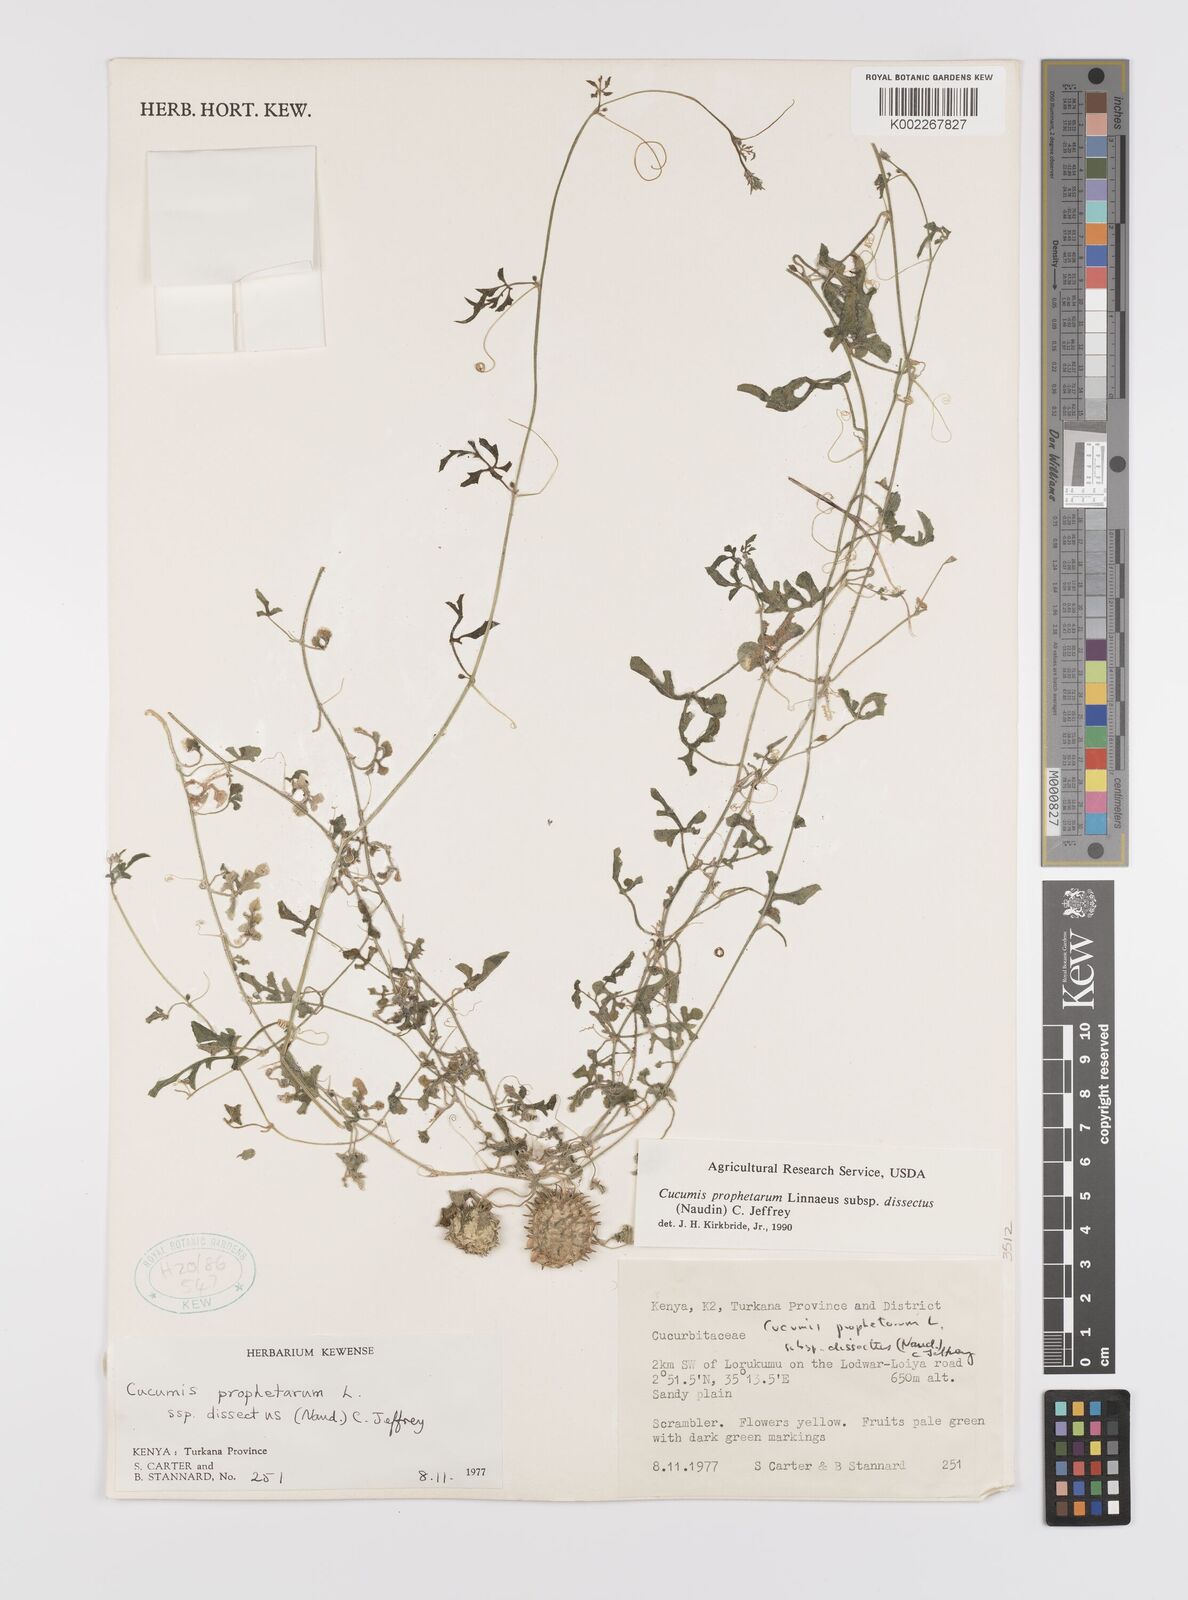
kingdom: Plantae
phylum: Tracheophyta
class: Magnoliopsida
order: Cucurbitales
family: Cucurbitaceae
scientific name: Cucurbitaceae
